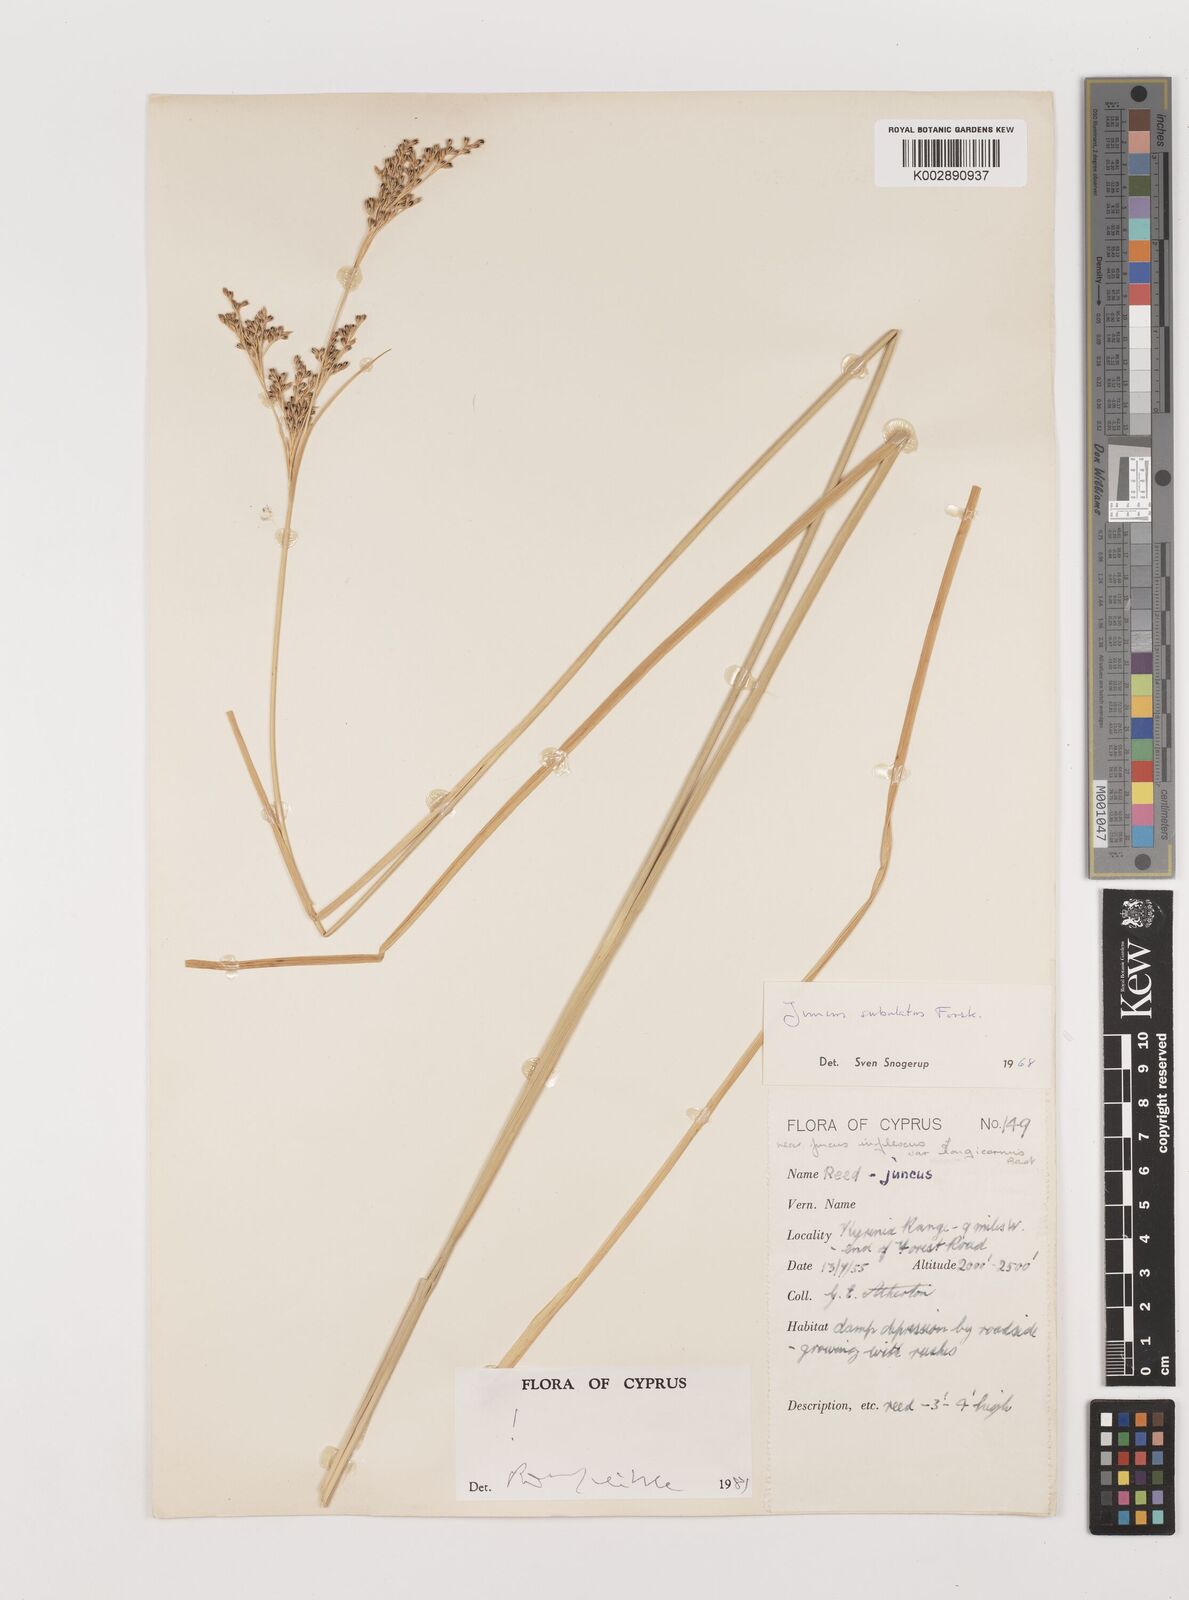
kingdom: Plantae
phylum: Tracheophyta
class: Liliopsida
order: Poales
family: Juncaceae
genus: Juncus
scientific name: Juncus subulatus
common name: Somerset rush
